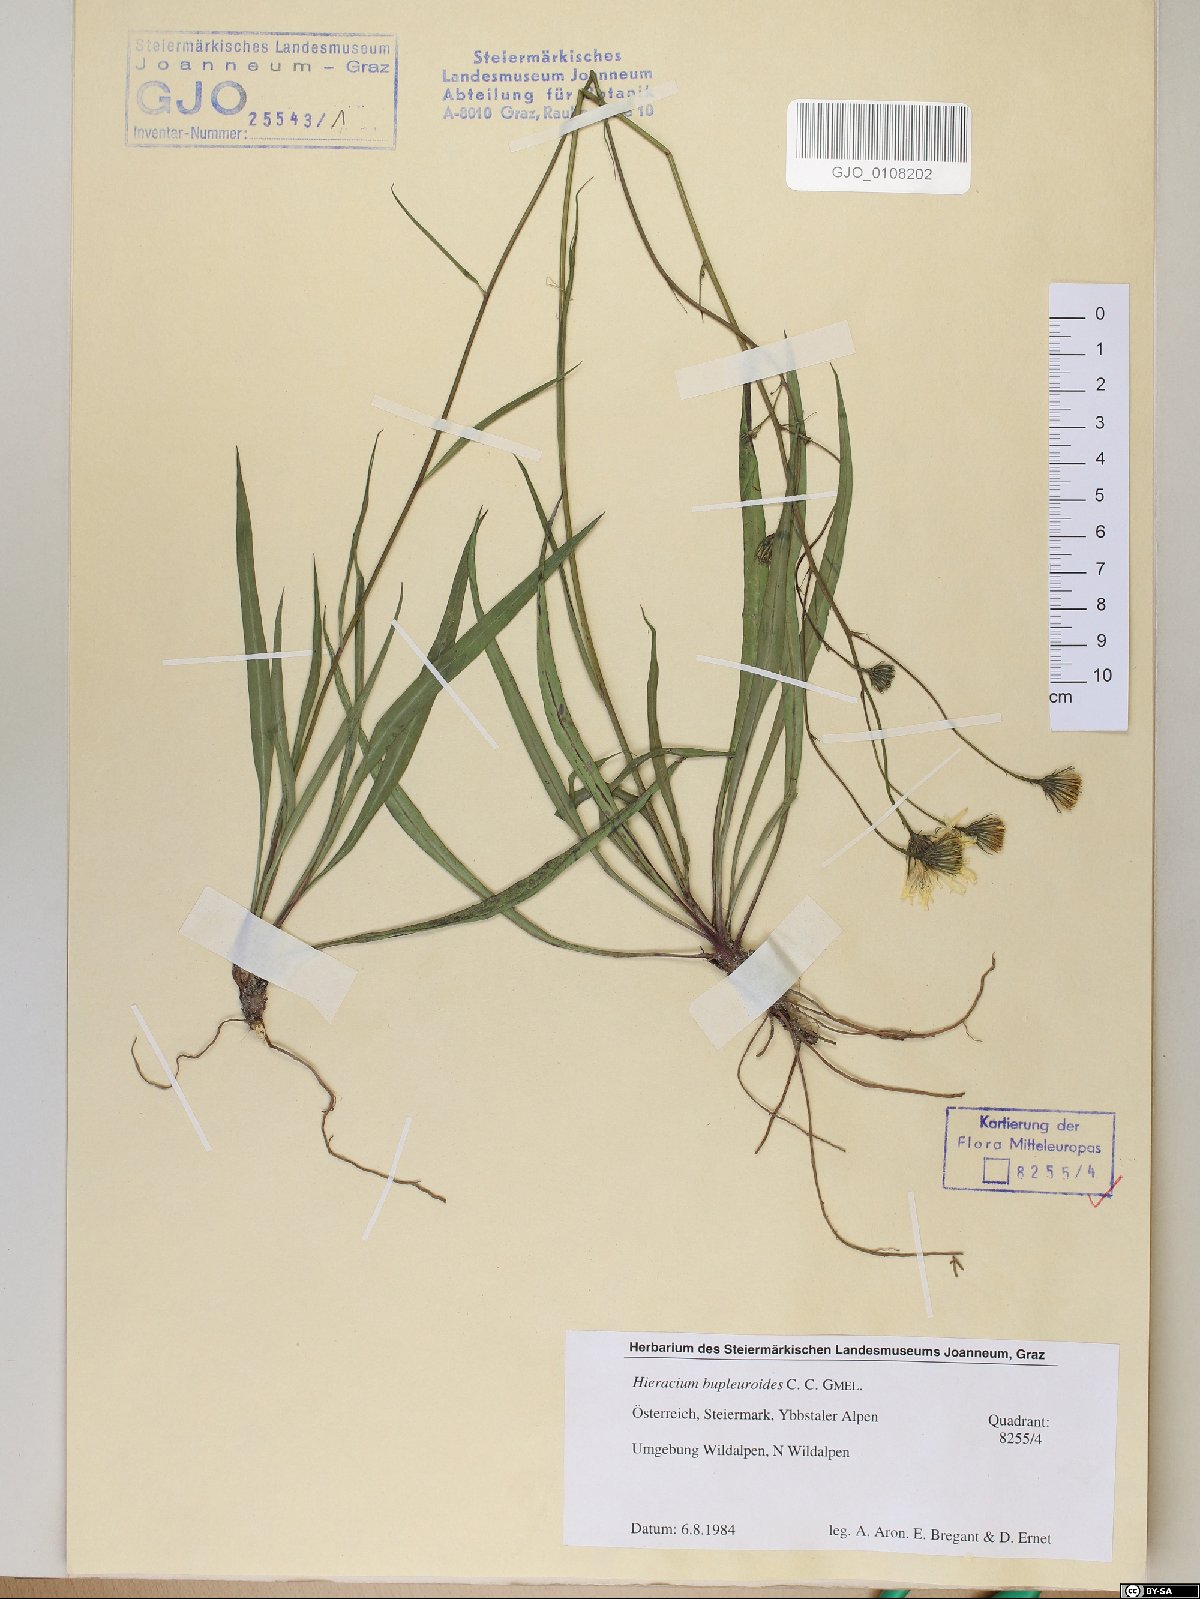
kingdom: Plantae
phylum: Tracheophyta
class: Magnoliopsida
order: Asterales
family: Asteraceae
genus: Hieracium
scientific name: Hieracium bupleuroides
